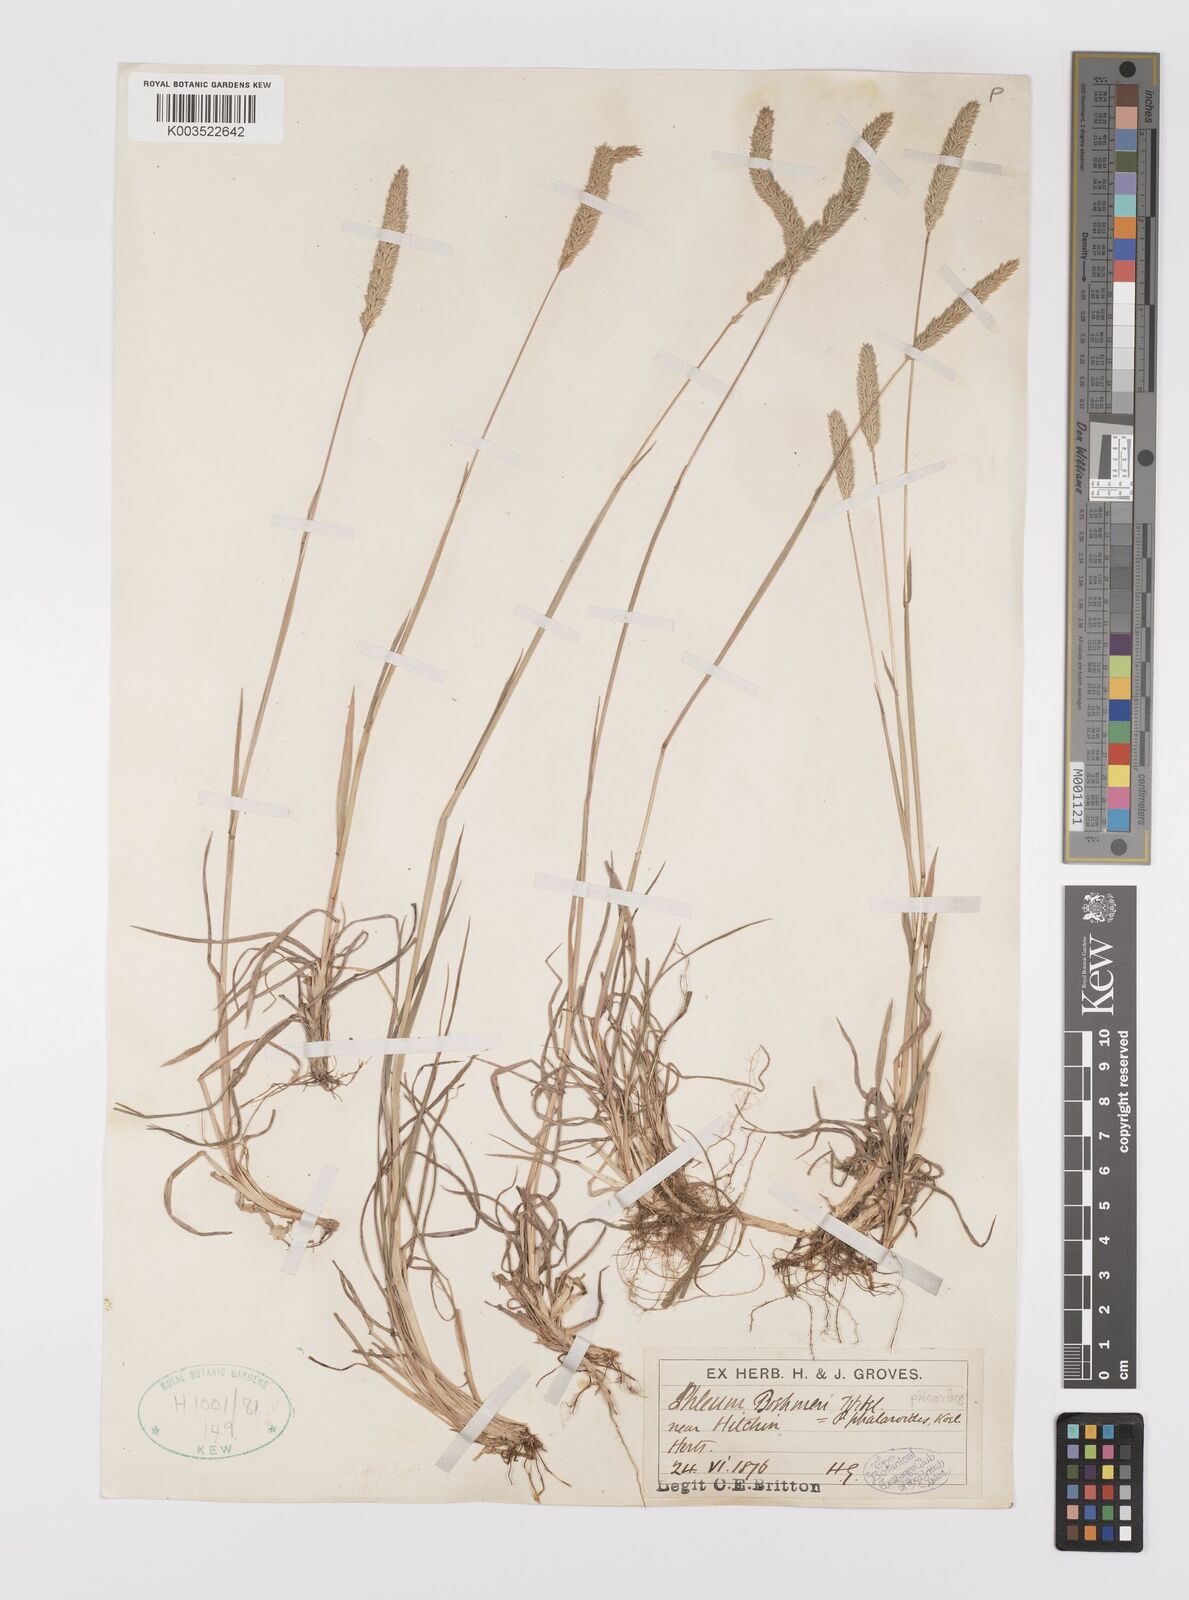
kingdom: Plantae
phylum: Tracheophyta
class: Liliopsida
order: Poales
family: Poaceae
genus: Phleum
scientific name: Phleum phleoides
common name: Purple-stem cat's-tail
